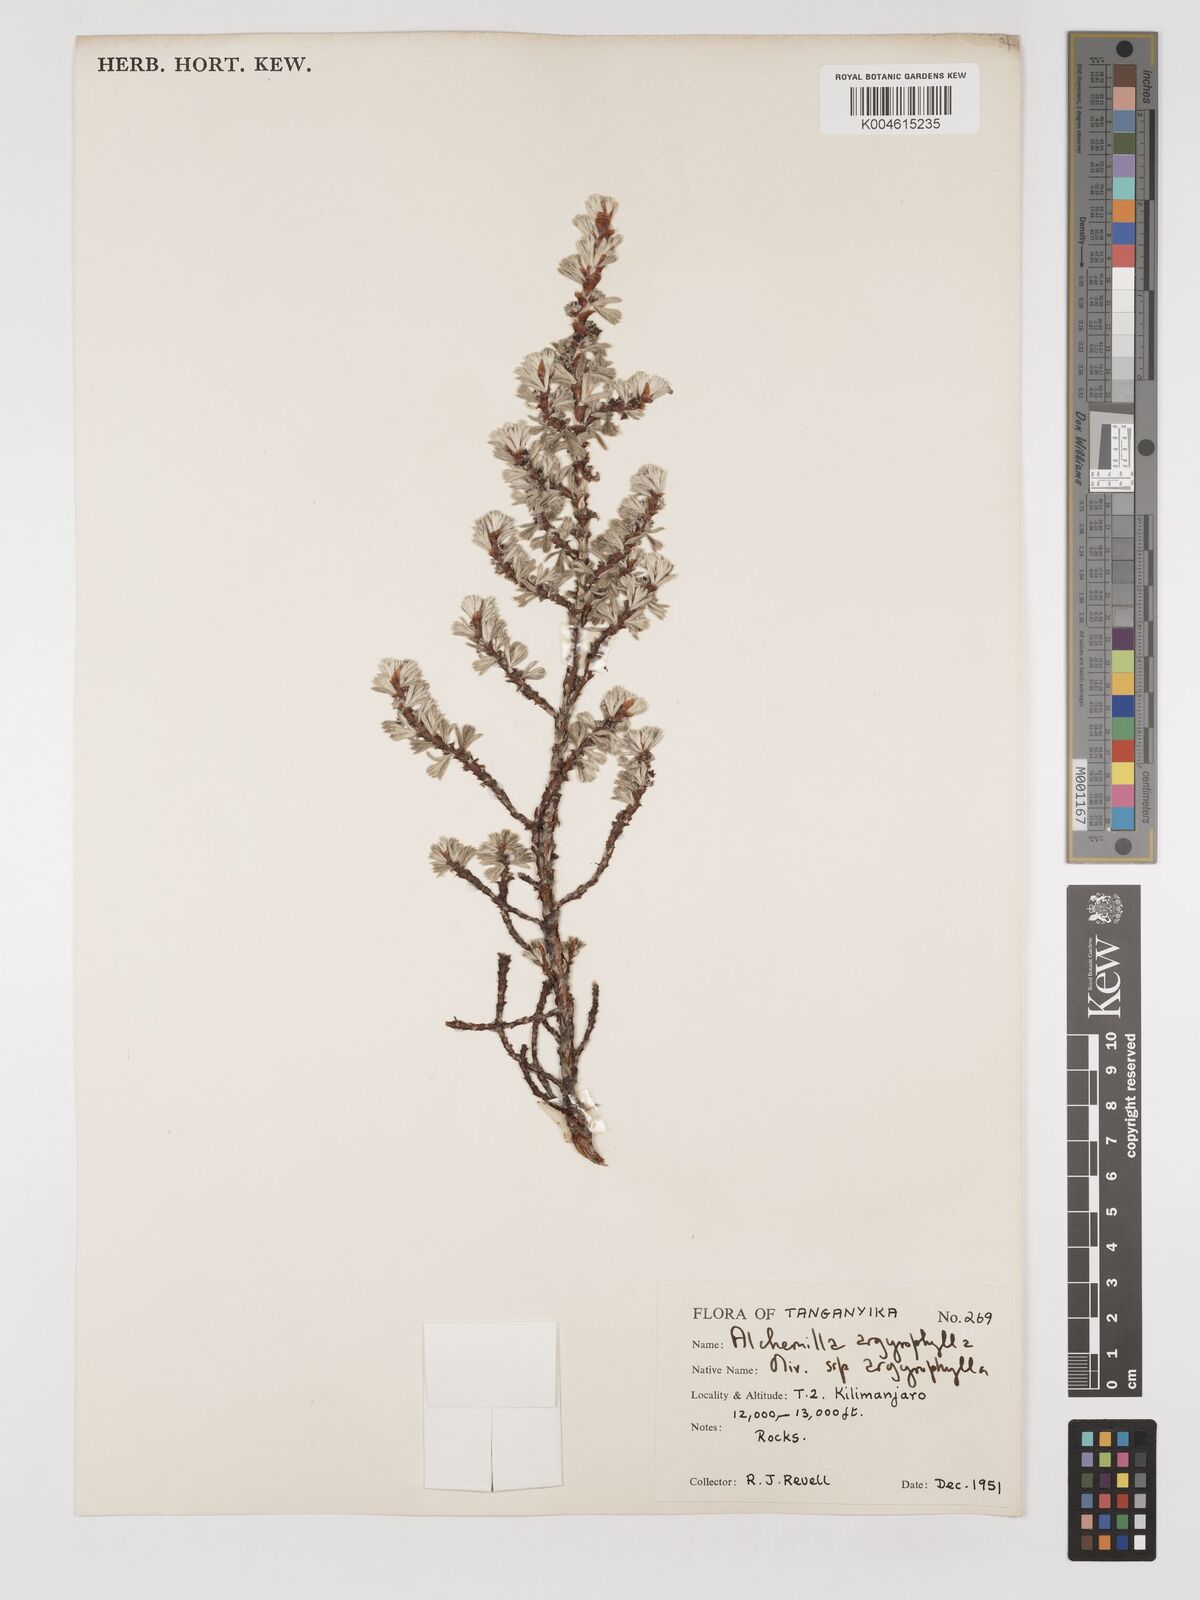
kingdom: Plantae
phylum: Tracheophyta
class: Magnoliopsida
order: Rosales
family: Rosaceae
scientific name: Rosaceae
